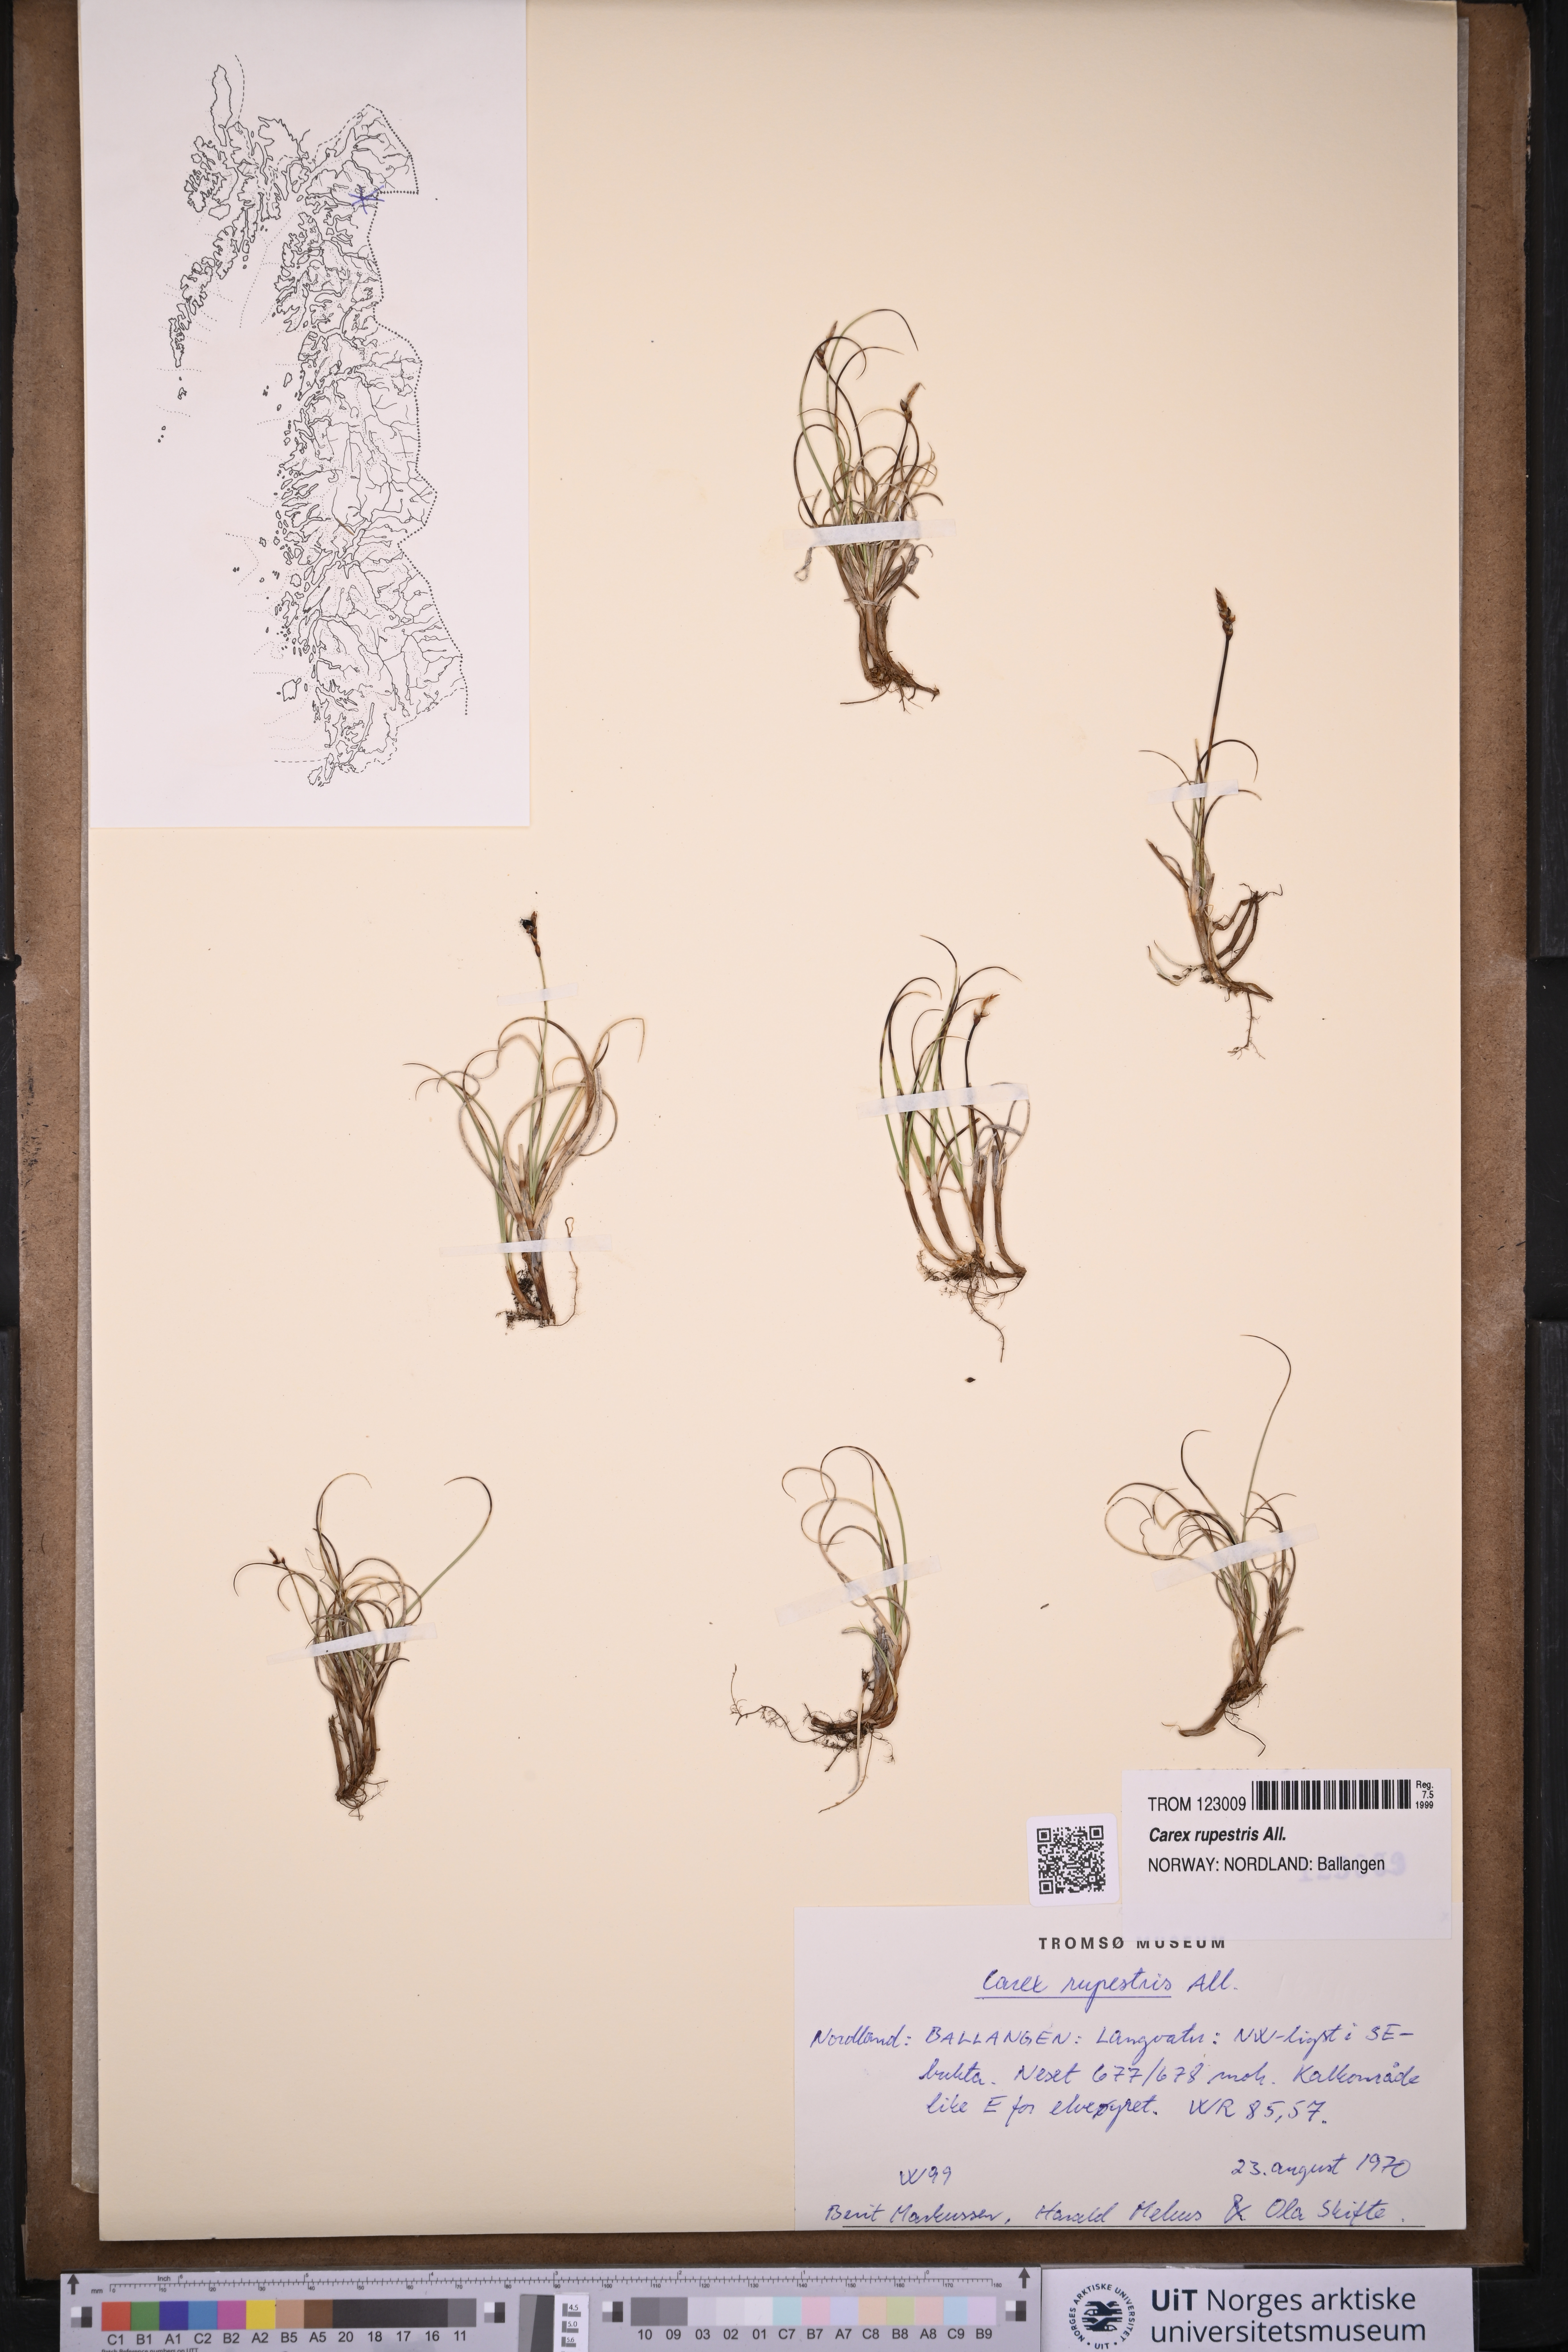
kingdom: Plantae
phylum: Tracheophyta
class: Liliopsida
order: Poales
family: Cyperaceae
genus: Carex
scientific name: Carex rupestris
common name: Rock sedge
